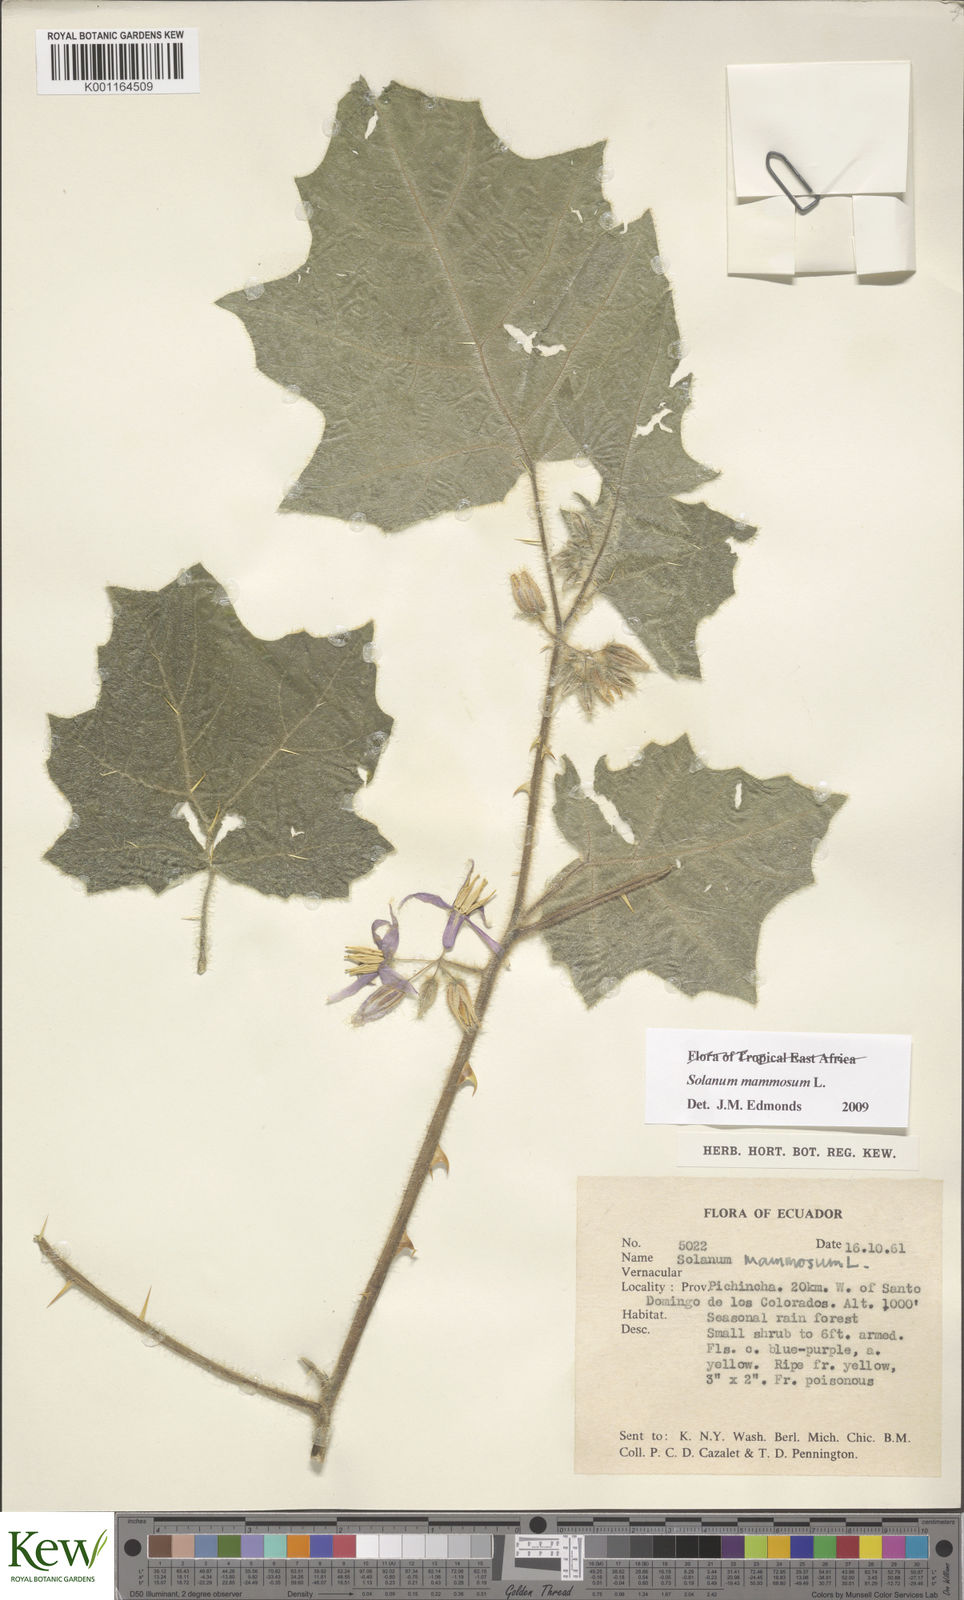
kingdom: Plantae
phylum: Tracheophyta
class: Magnoliopsida
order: Solanales
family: Solanaceae
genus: Solanum
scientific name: Solanum mammosum
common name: Nipple fruit
